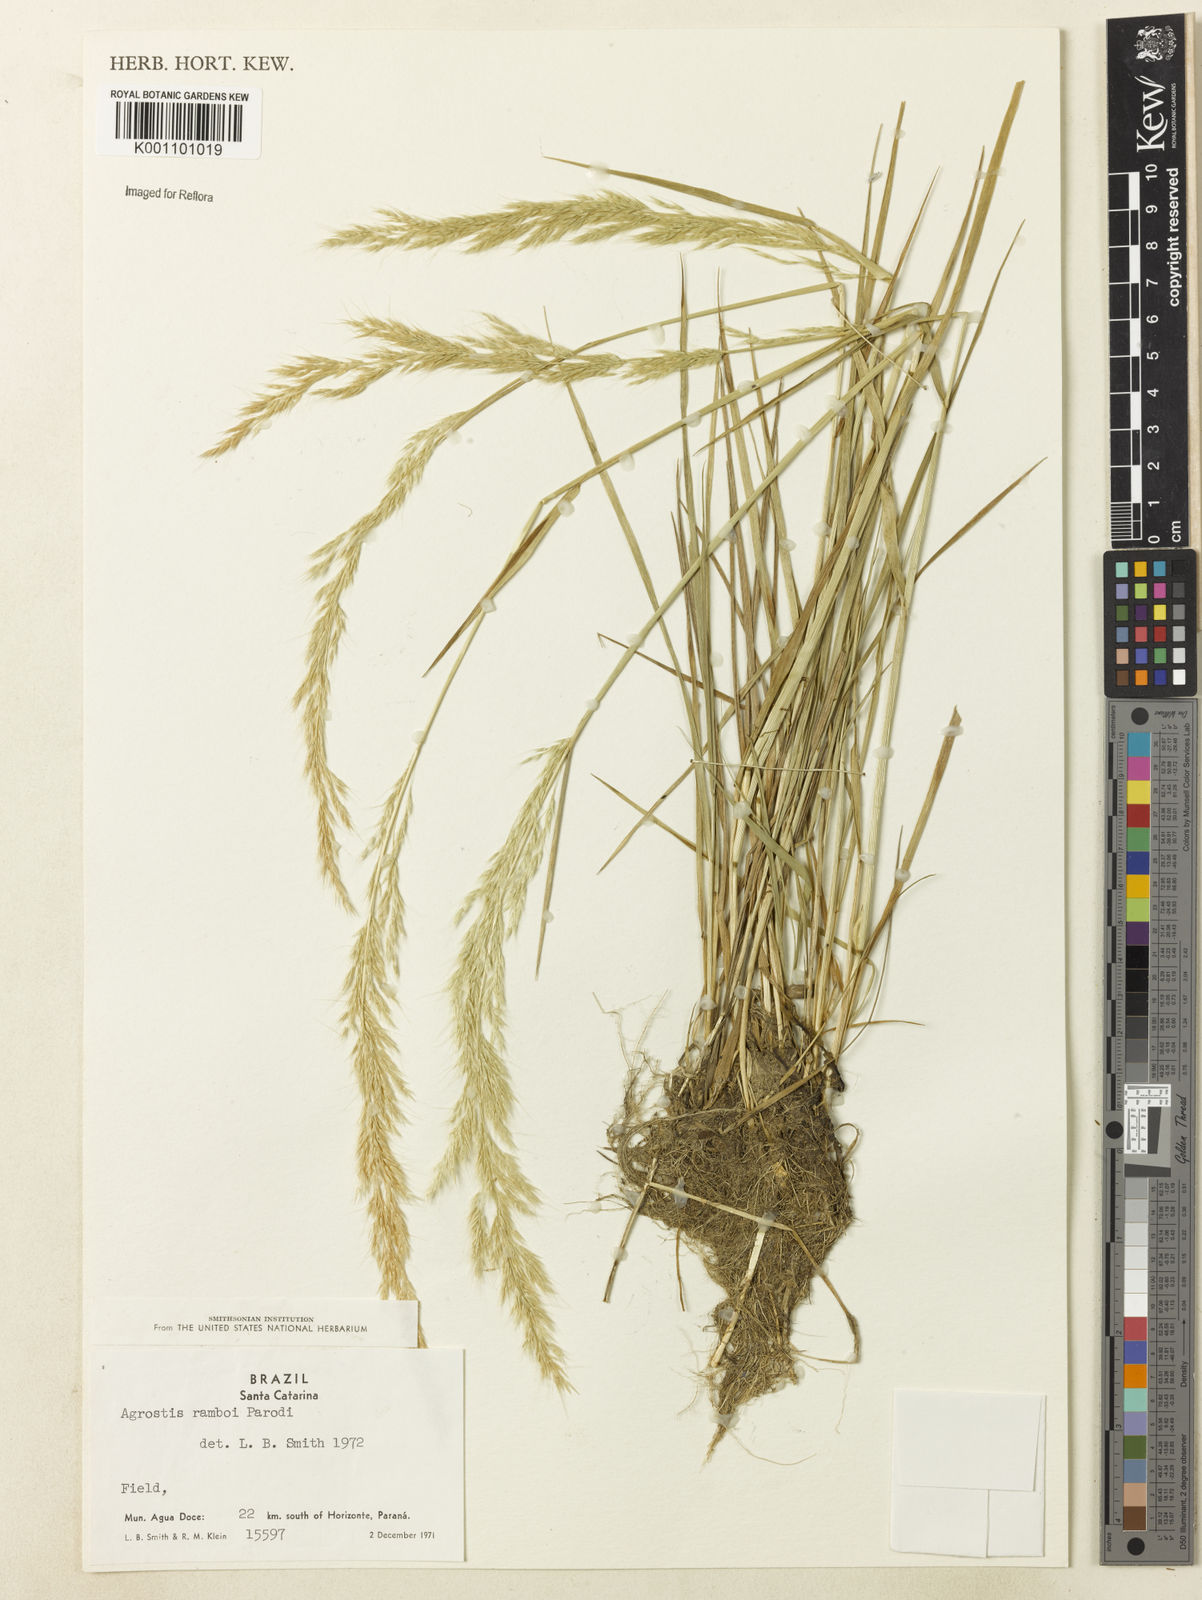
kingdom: Plantae
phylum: Tracheophyta
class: Liliopsida
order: Poales
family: Poaceae
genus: Agrostis
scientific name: Agrostis hygrometrica
